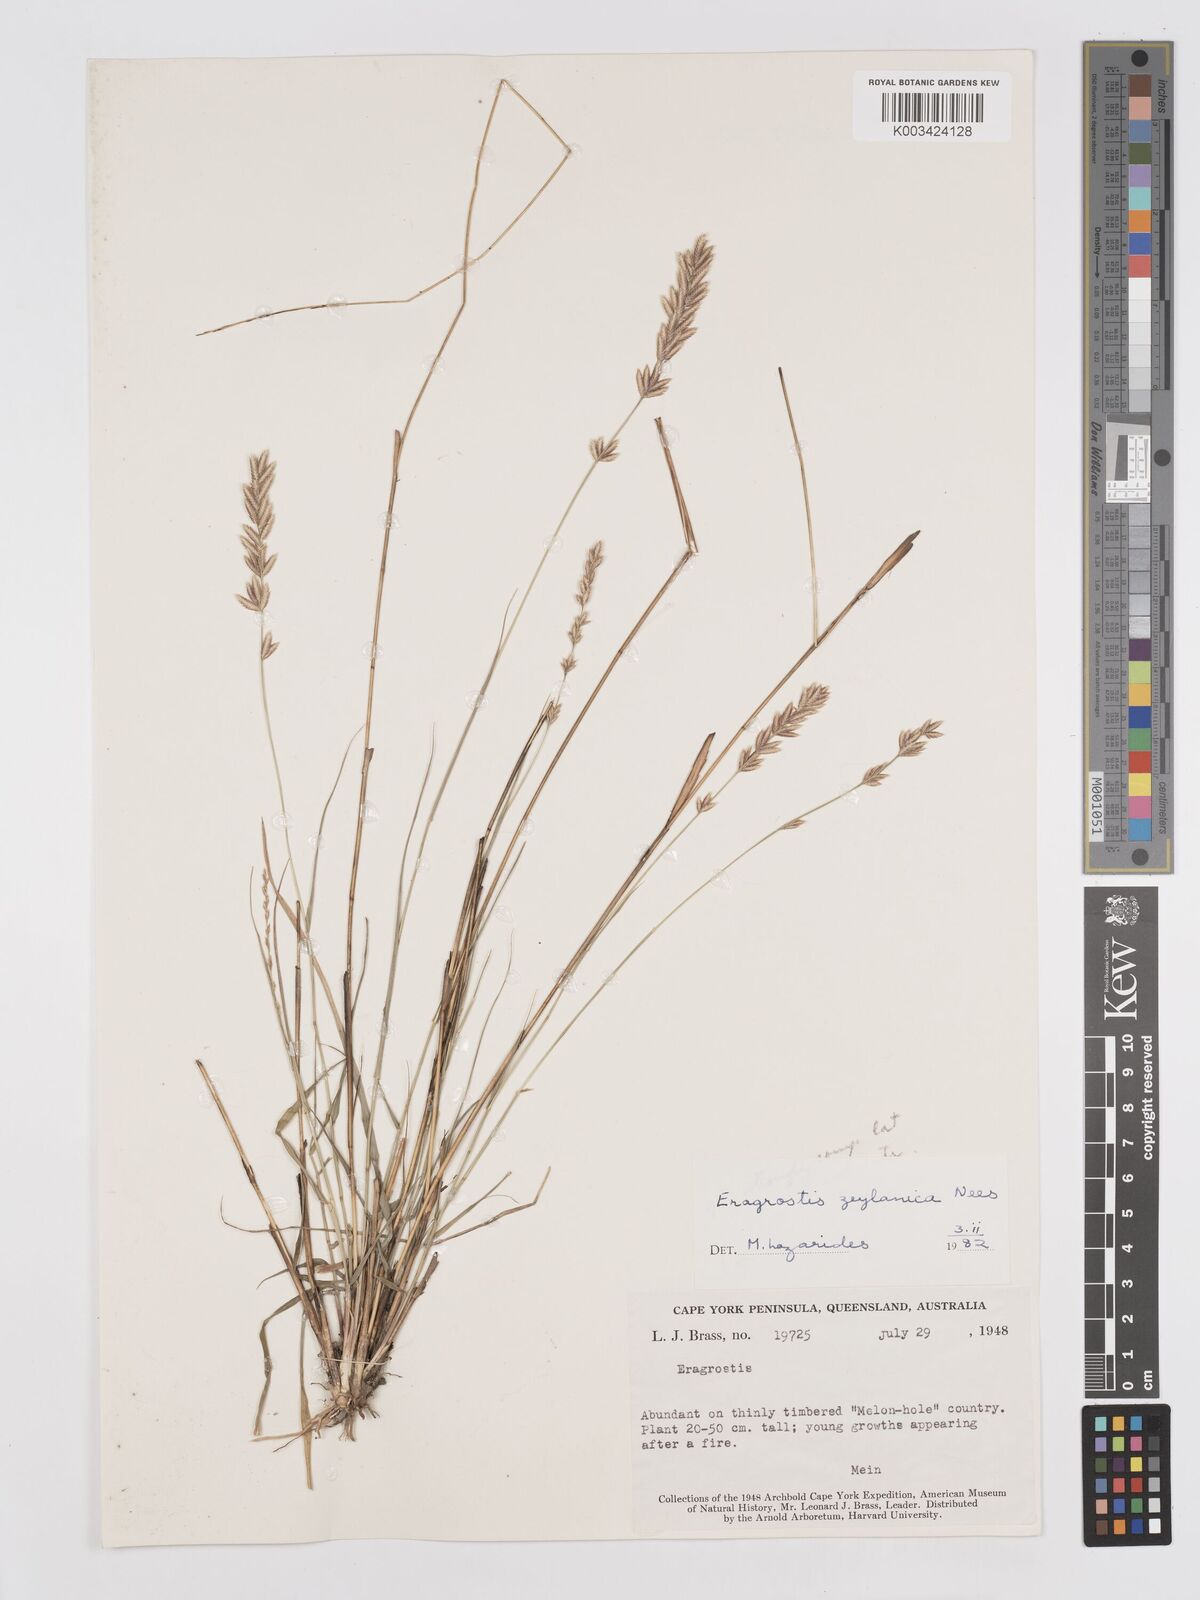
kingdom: Plantae
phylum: Tracheophyta
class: Liliopsida
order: Poales
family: Poaceae
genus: Eragrostis
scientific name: Eragrostis brownii
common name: Lovegrass
